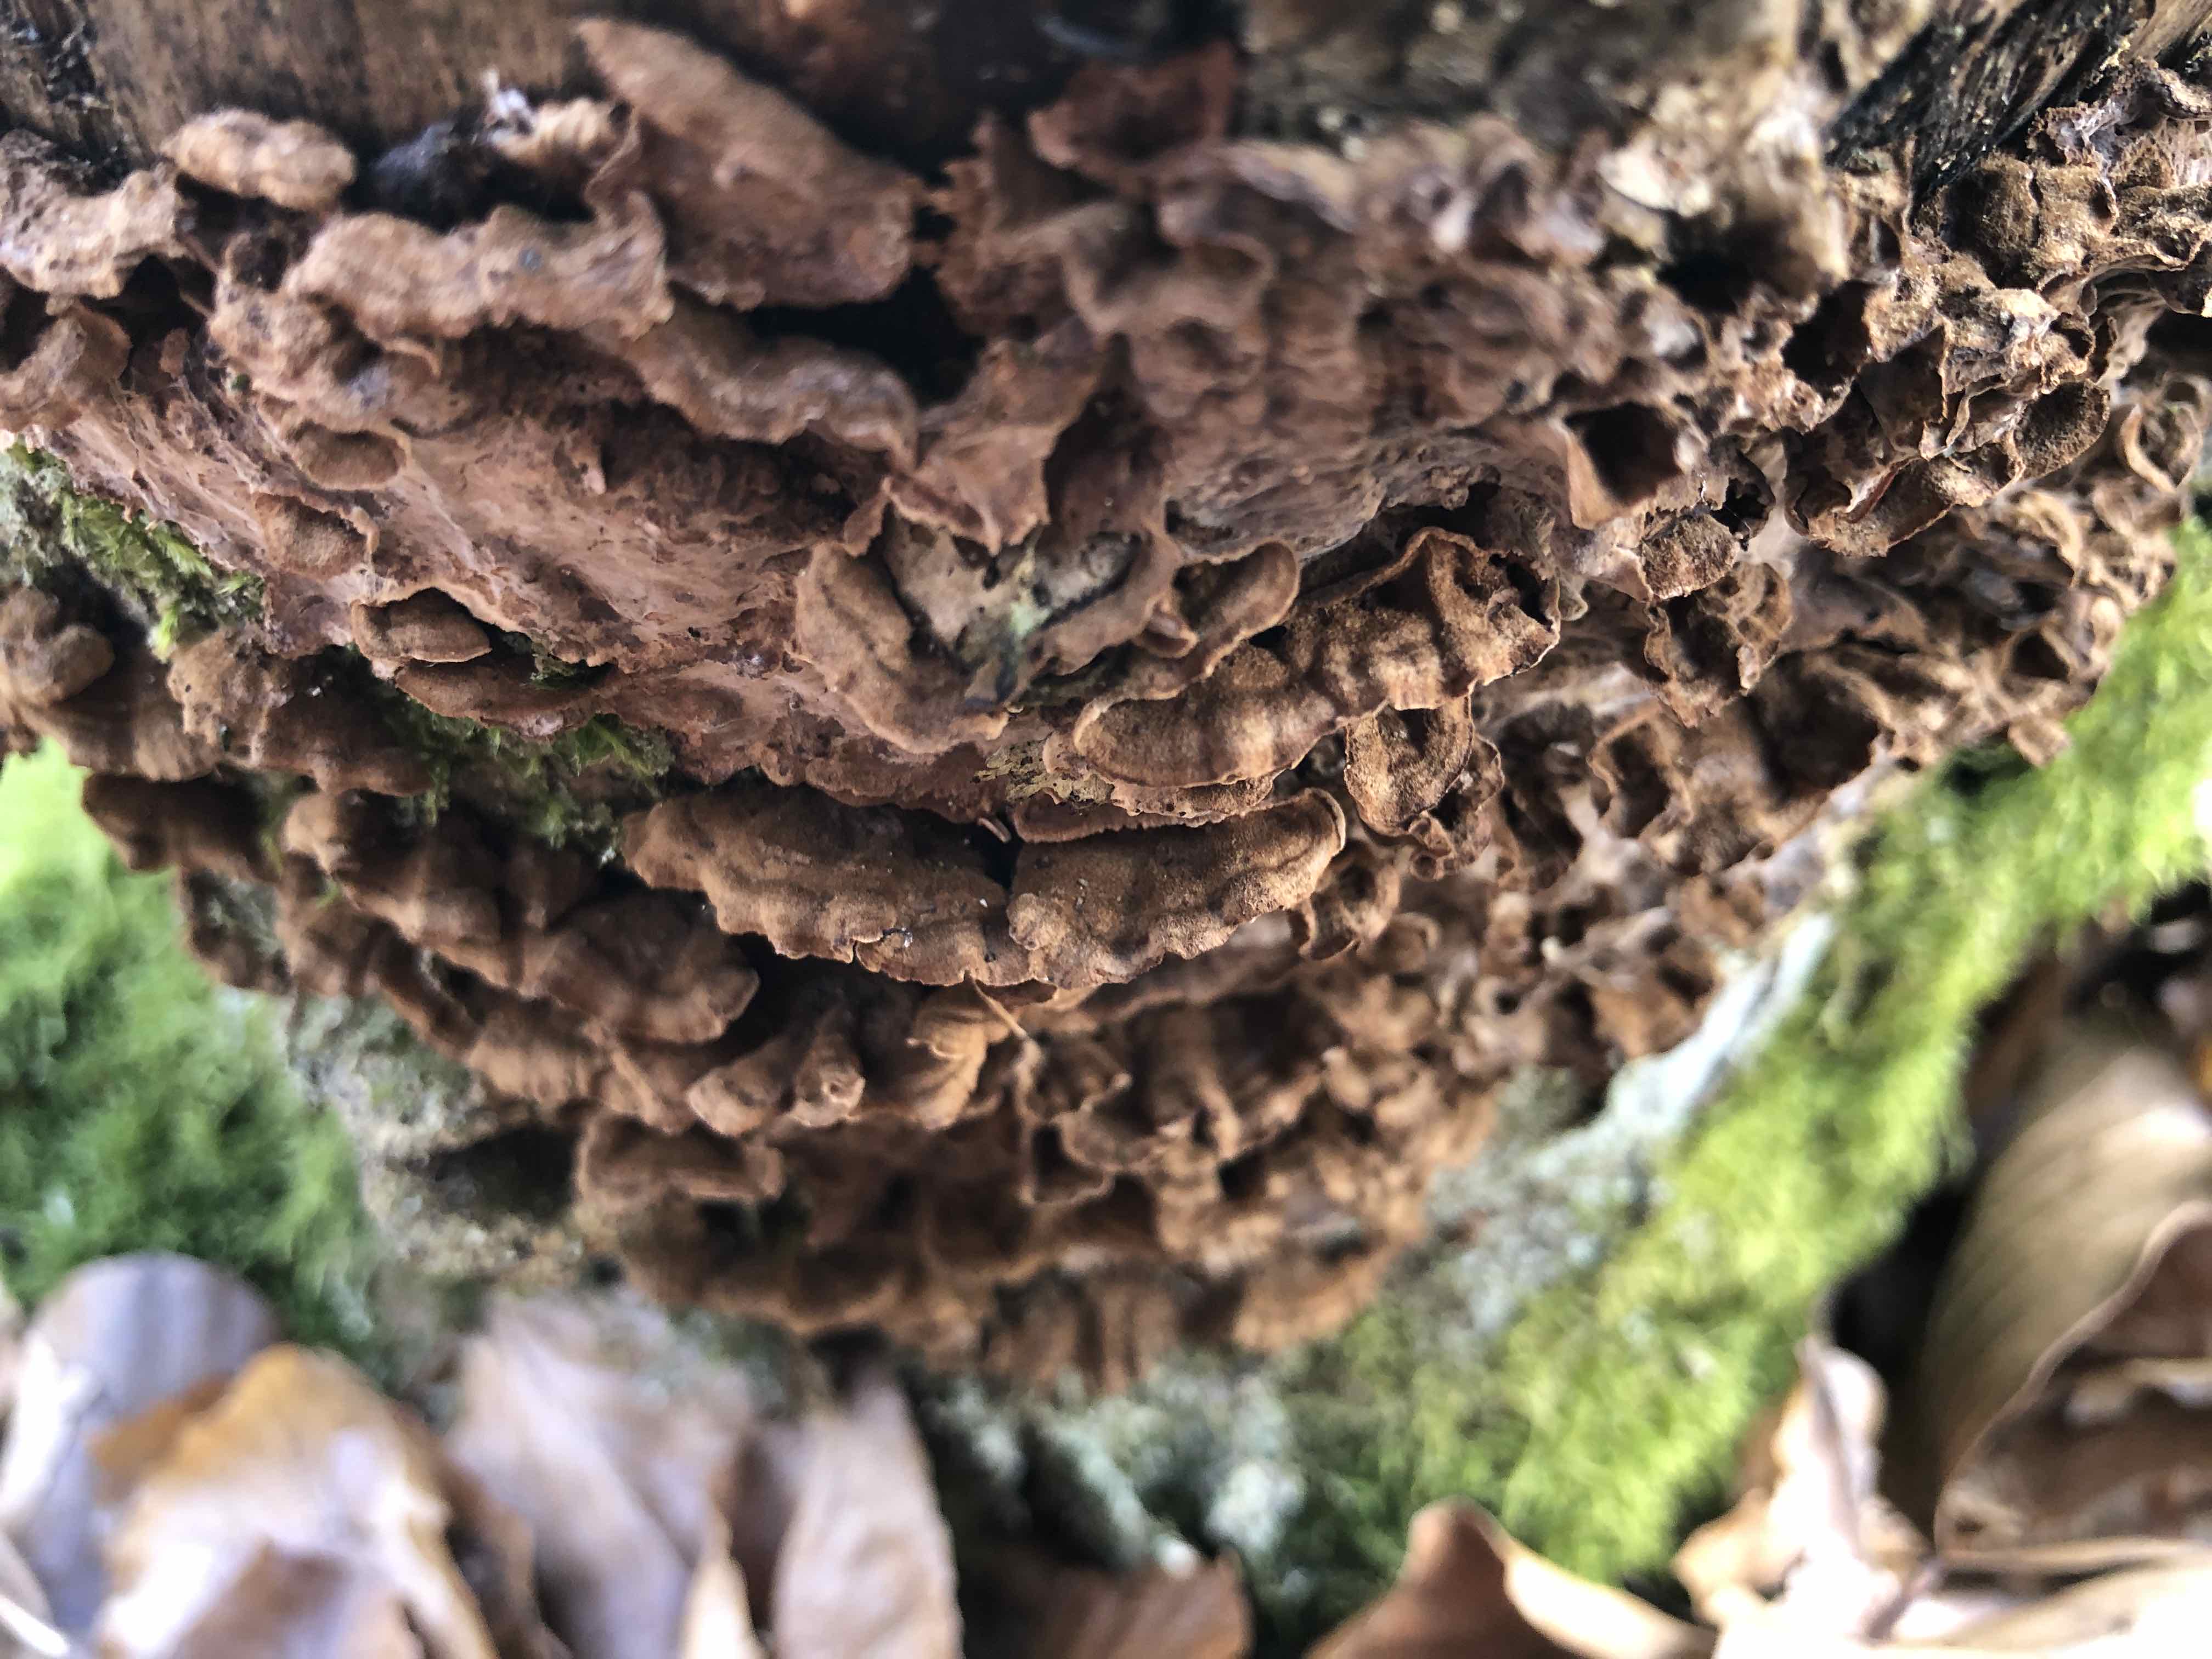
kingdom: Fungi
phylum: Basidiomycota
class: Agaricomycetes
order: Russulales
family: Hericiaceae
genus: Laxitextum
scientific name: Laxitextum bicolor
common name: tvefarvet filtskind
